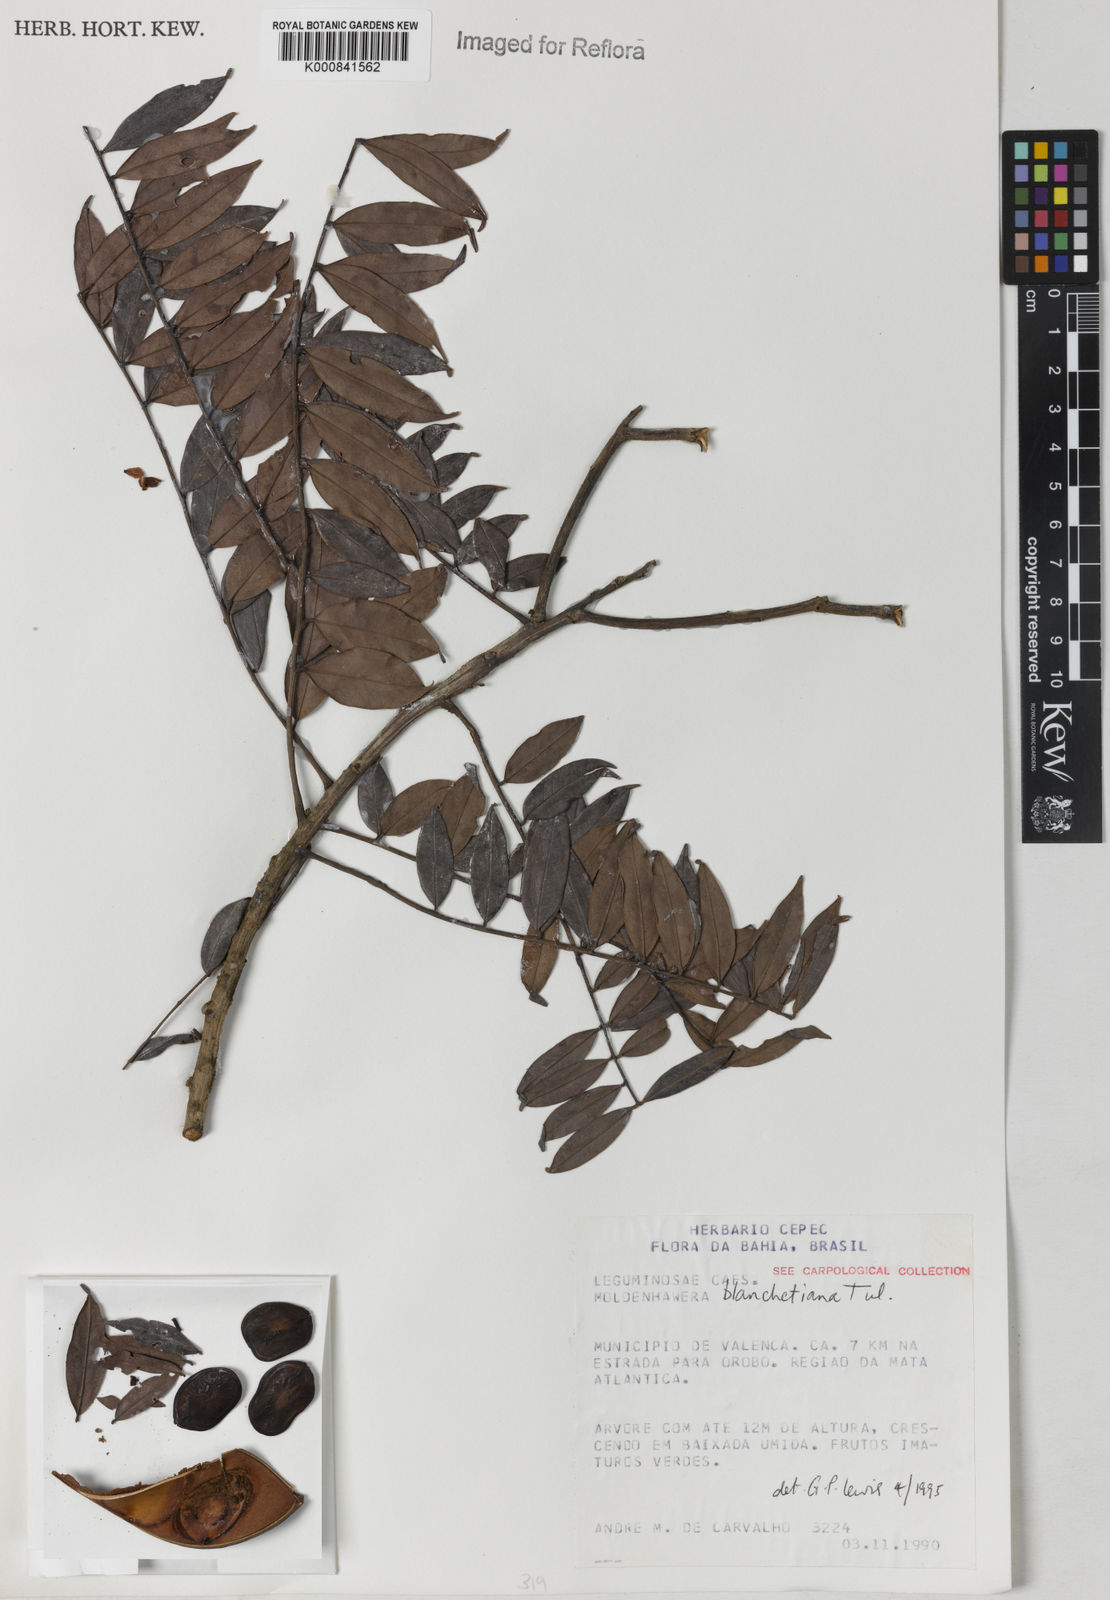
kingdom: Plantae
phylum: Tracheophyta
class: Magnoliopsida
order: Fabales
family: Fabaceae
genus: Moldenhawera
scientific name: Moldenhawera blanchetiana
